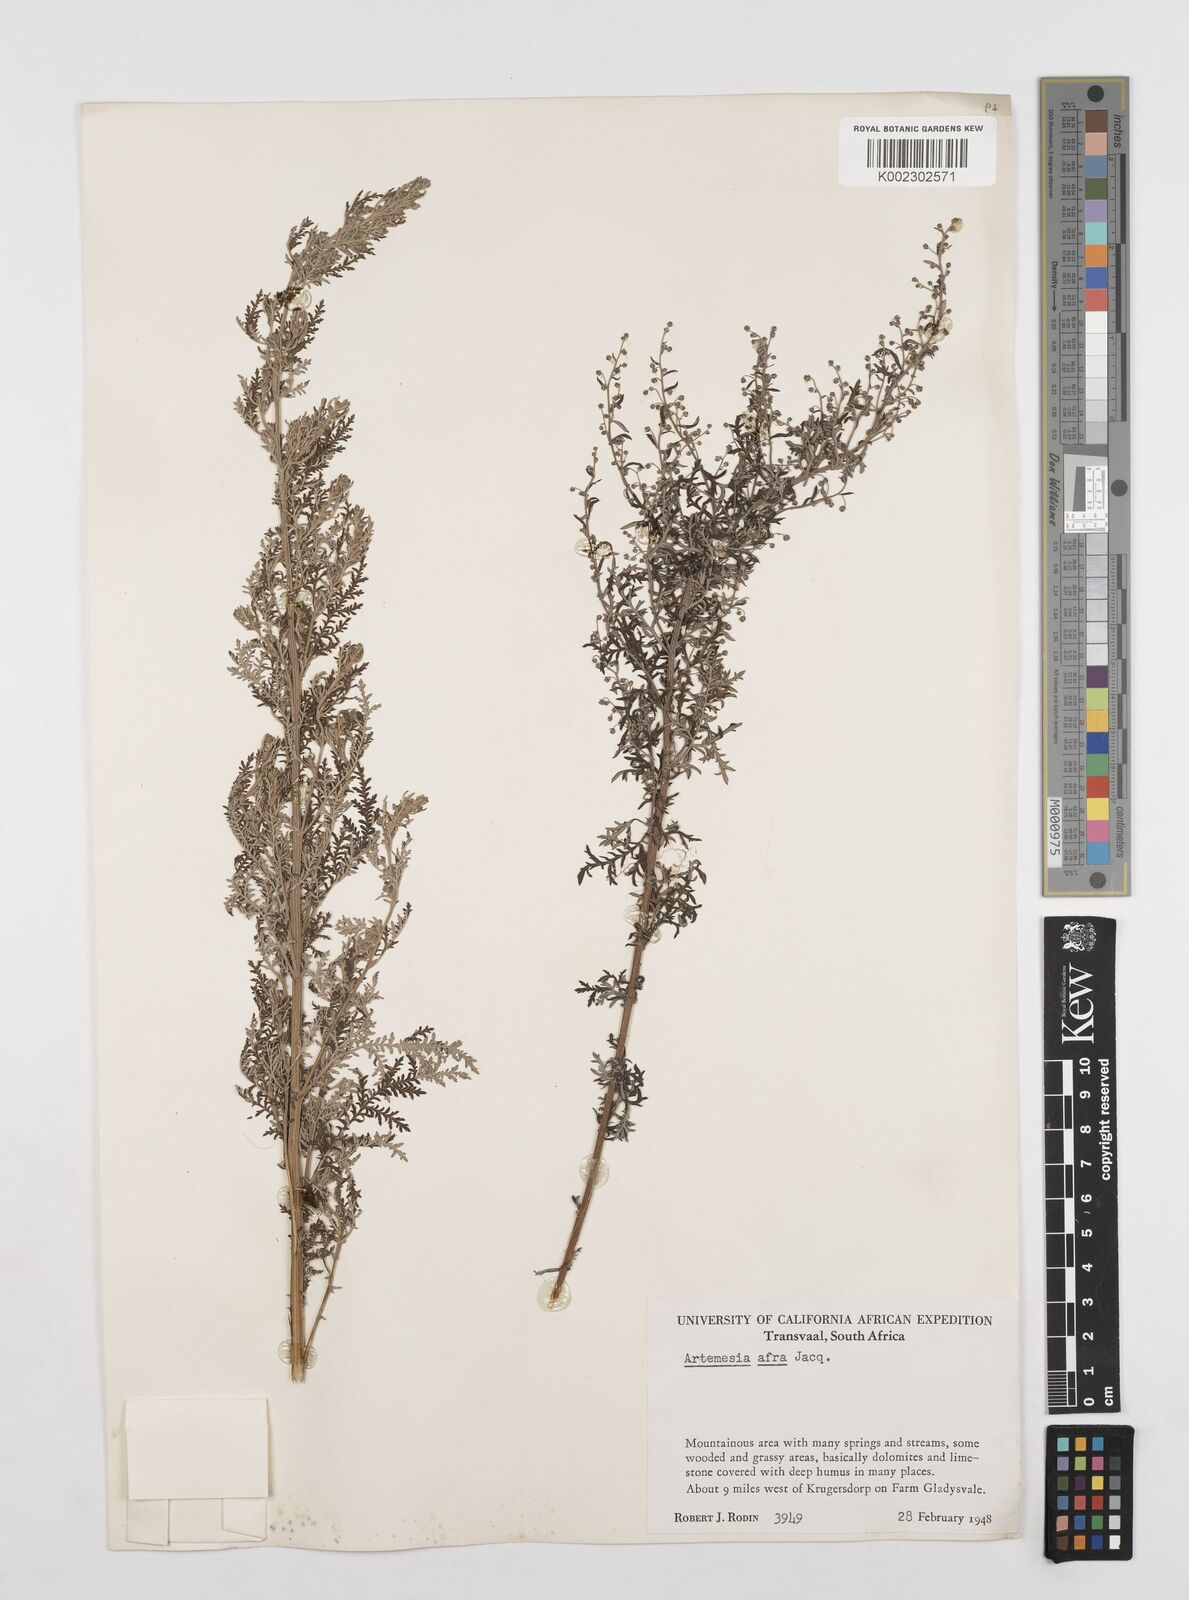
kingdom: Plantae
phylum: Tracheophyta
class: Magnoliopsida
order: Asterales
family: Asteraceae
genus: Artemisia
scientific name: Artemisia afra
